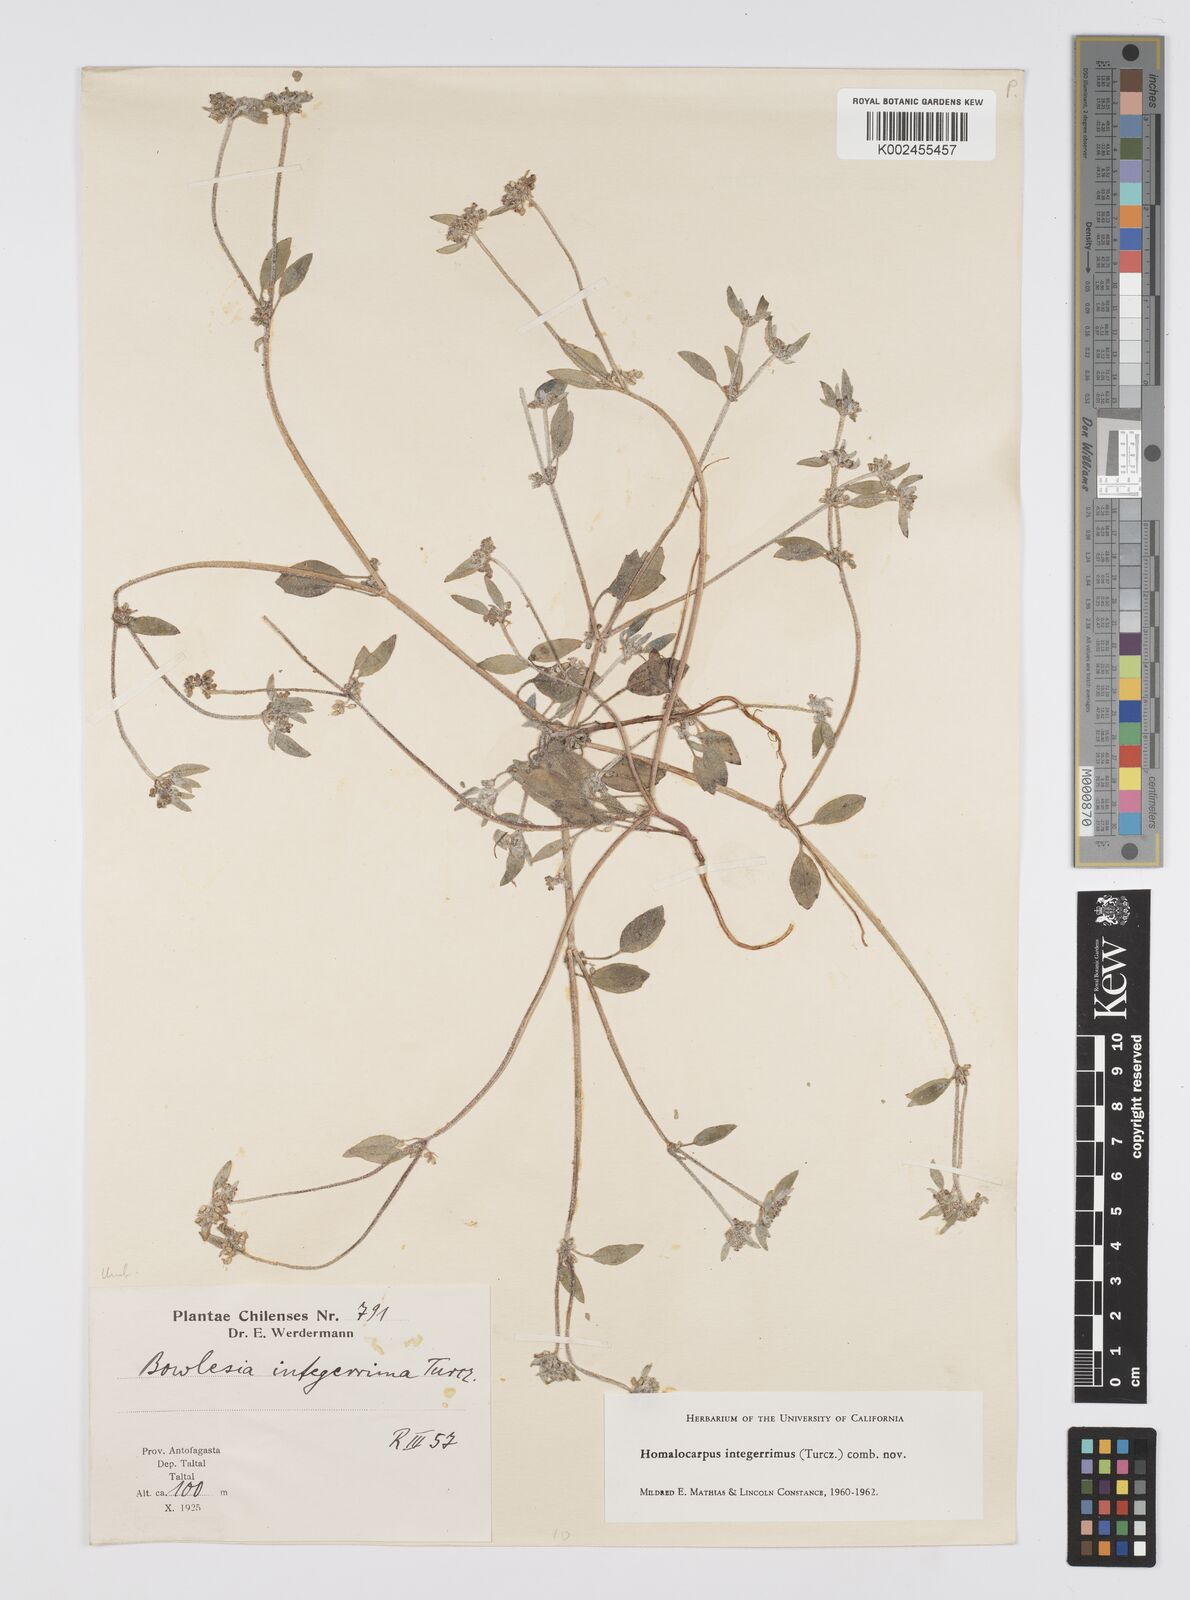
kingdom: Plantae
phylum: Tracheophyta
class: Magnoliopsida
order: Apiales
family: Apiaceae
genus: Homalocarpus
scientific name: Homalocarpus integerrimus
